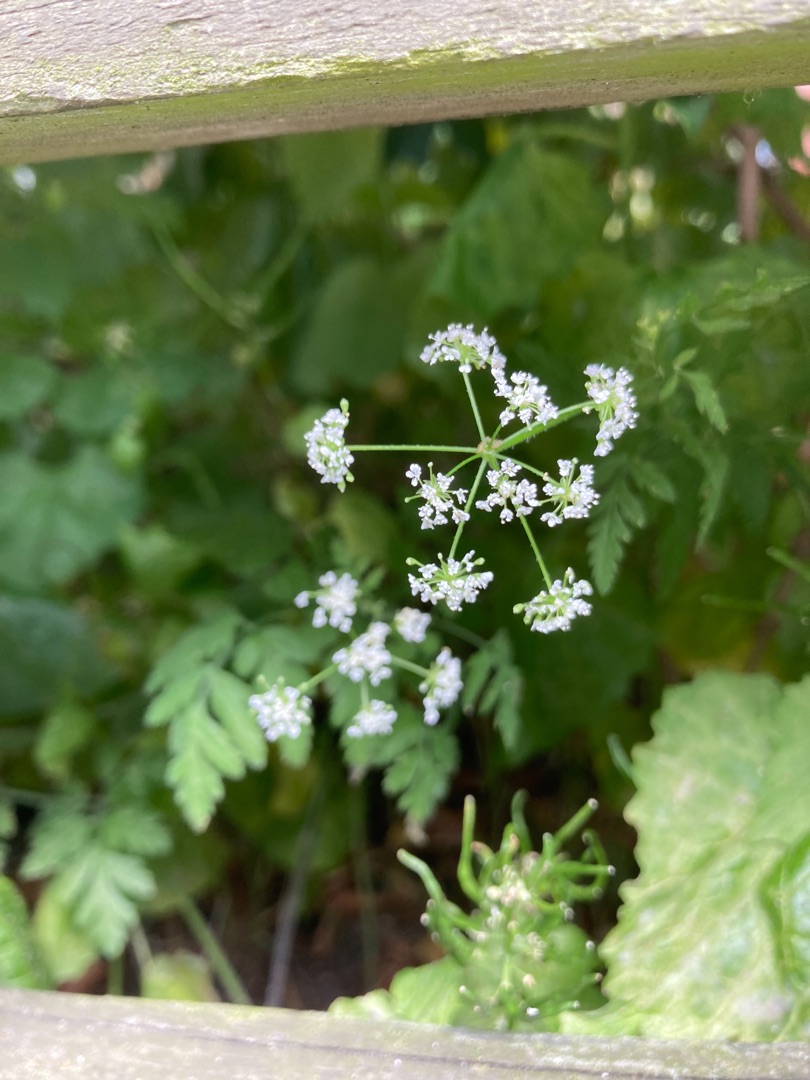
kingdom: Plantae
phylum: Tracheophyta
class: Magnoliopsida
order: Apiales
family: Apiaceae
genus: Chaerophyllum
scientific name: Chaerophyllum temulum
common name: Almindelig hulsvøb
